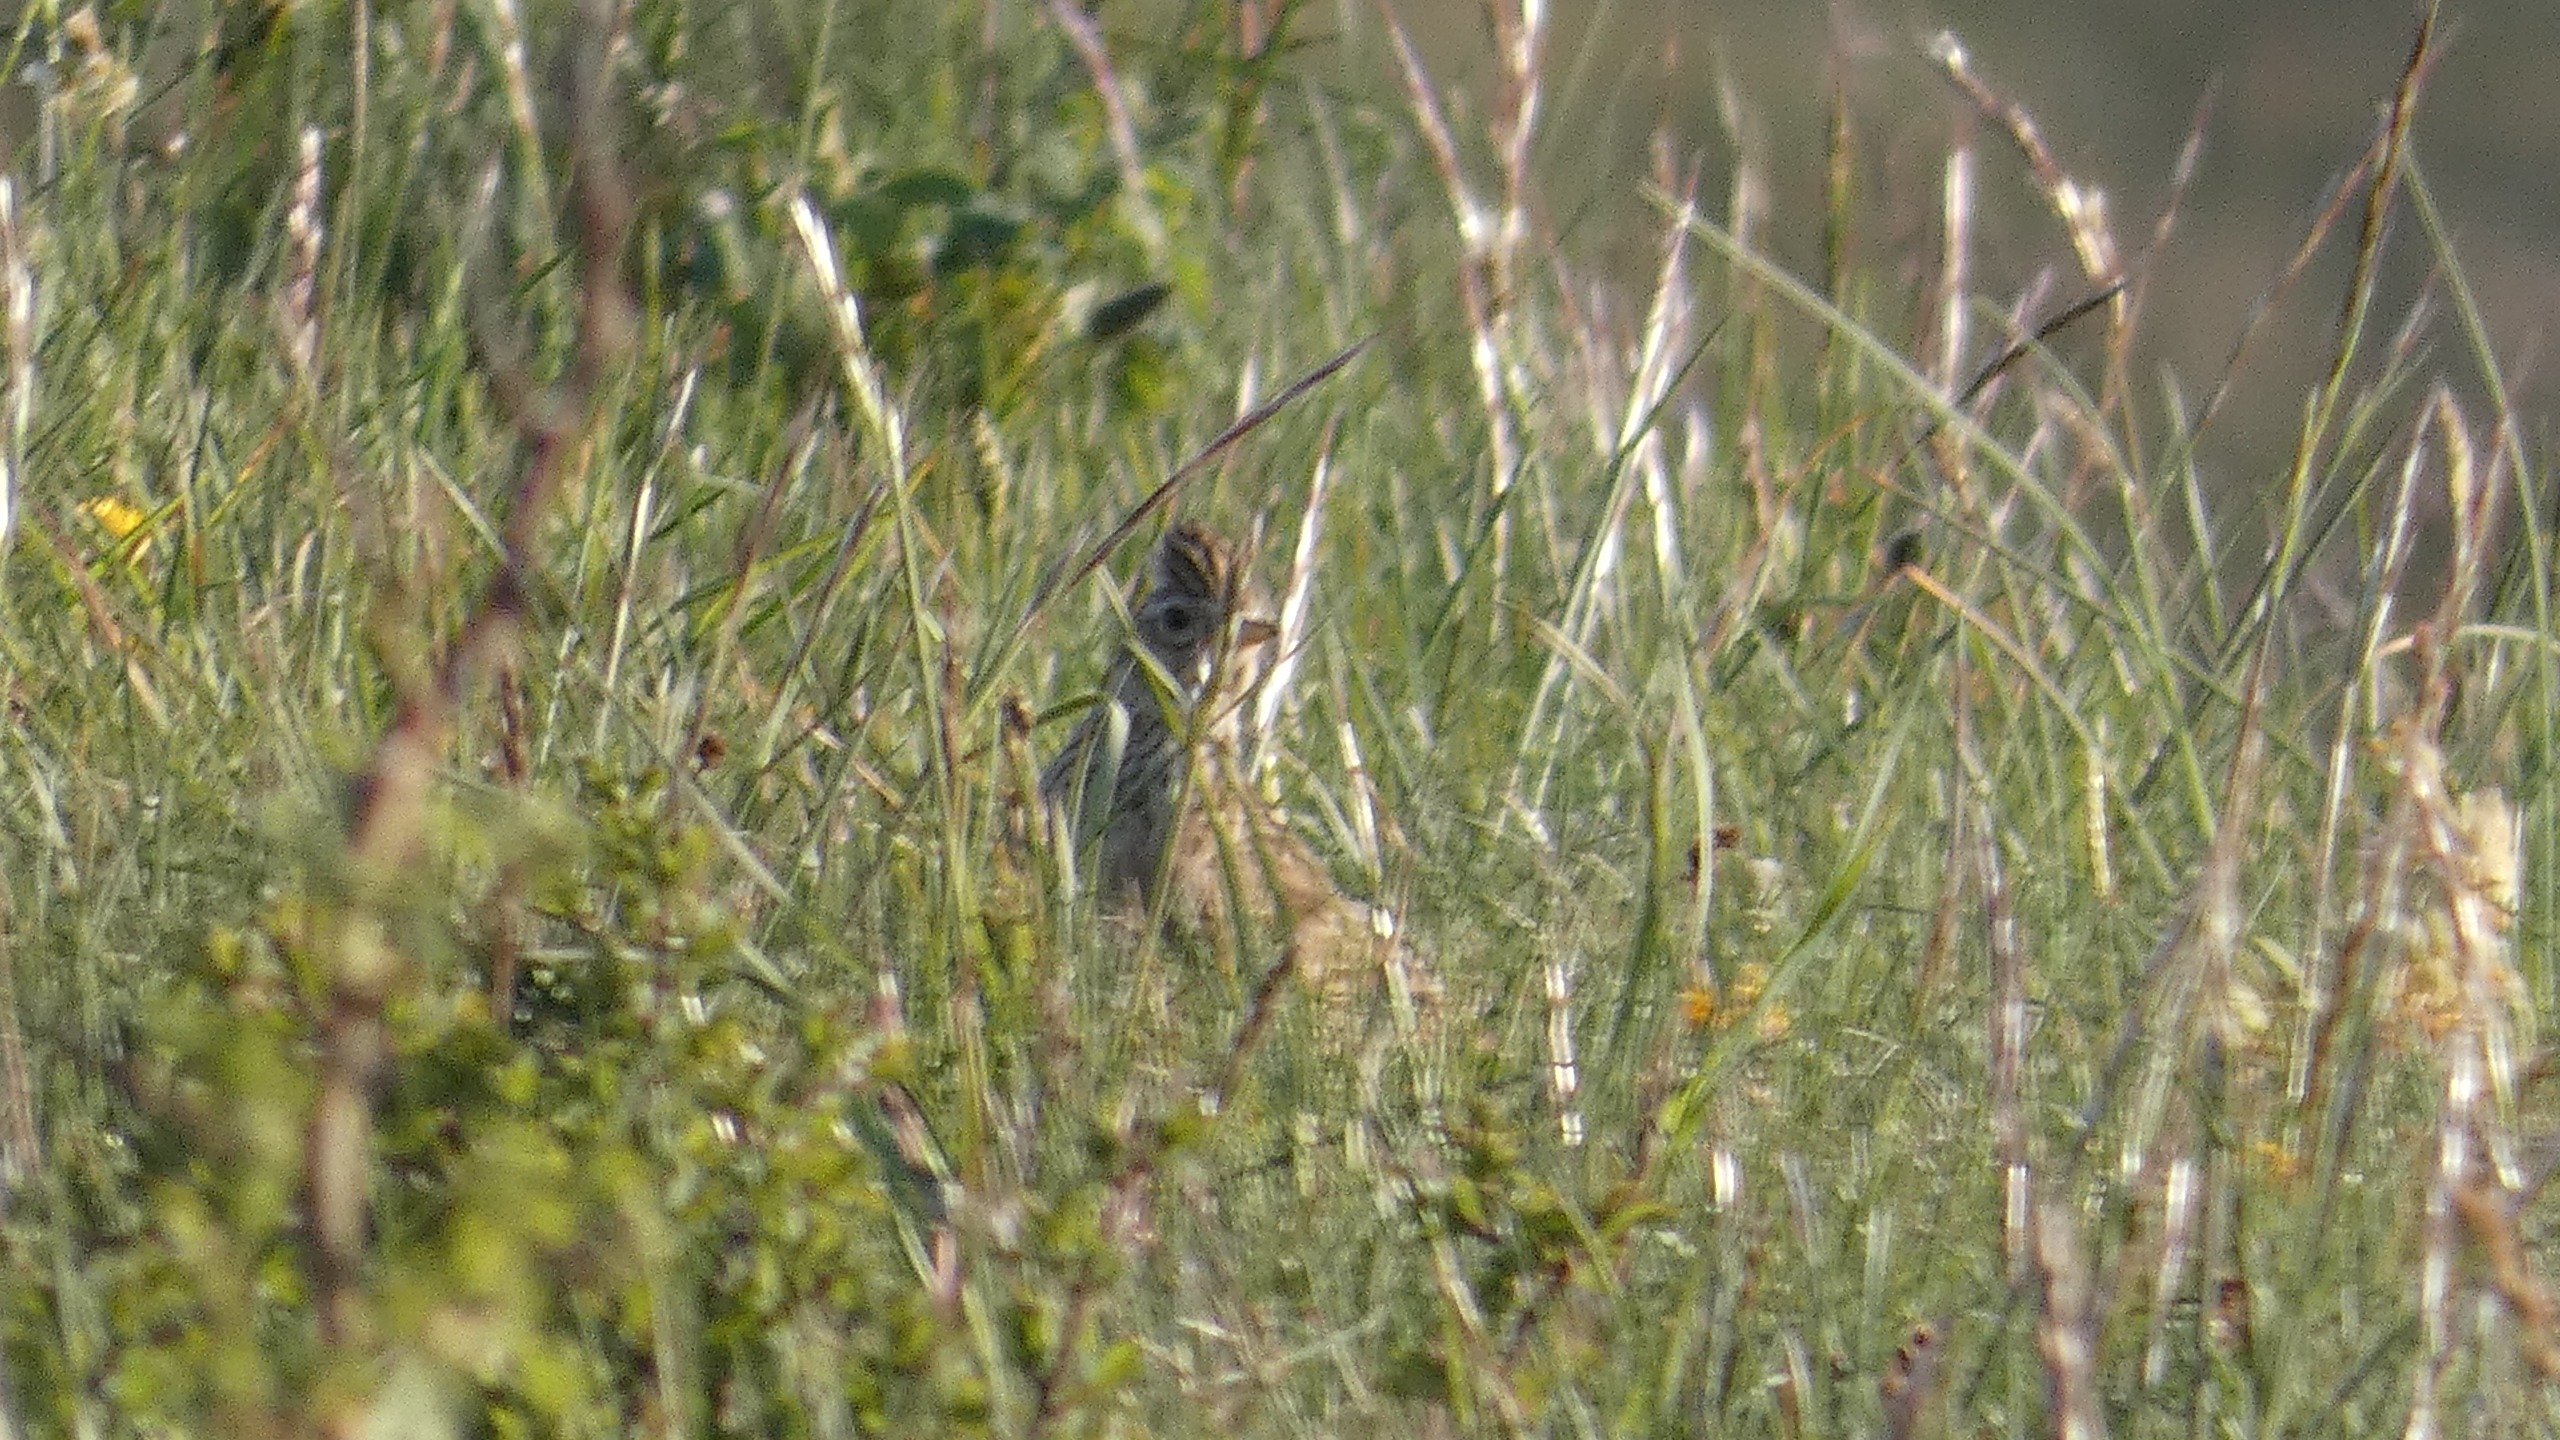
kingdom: Animalia
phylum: Chordata
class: Aves
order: Passeriformes
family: Alaudidae
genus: Alauda
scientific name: Alauda arvensis
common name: Sanglærke
